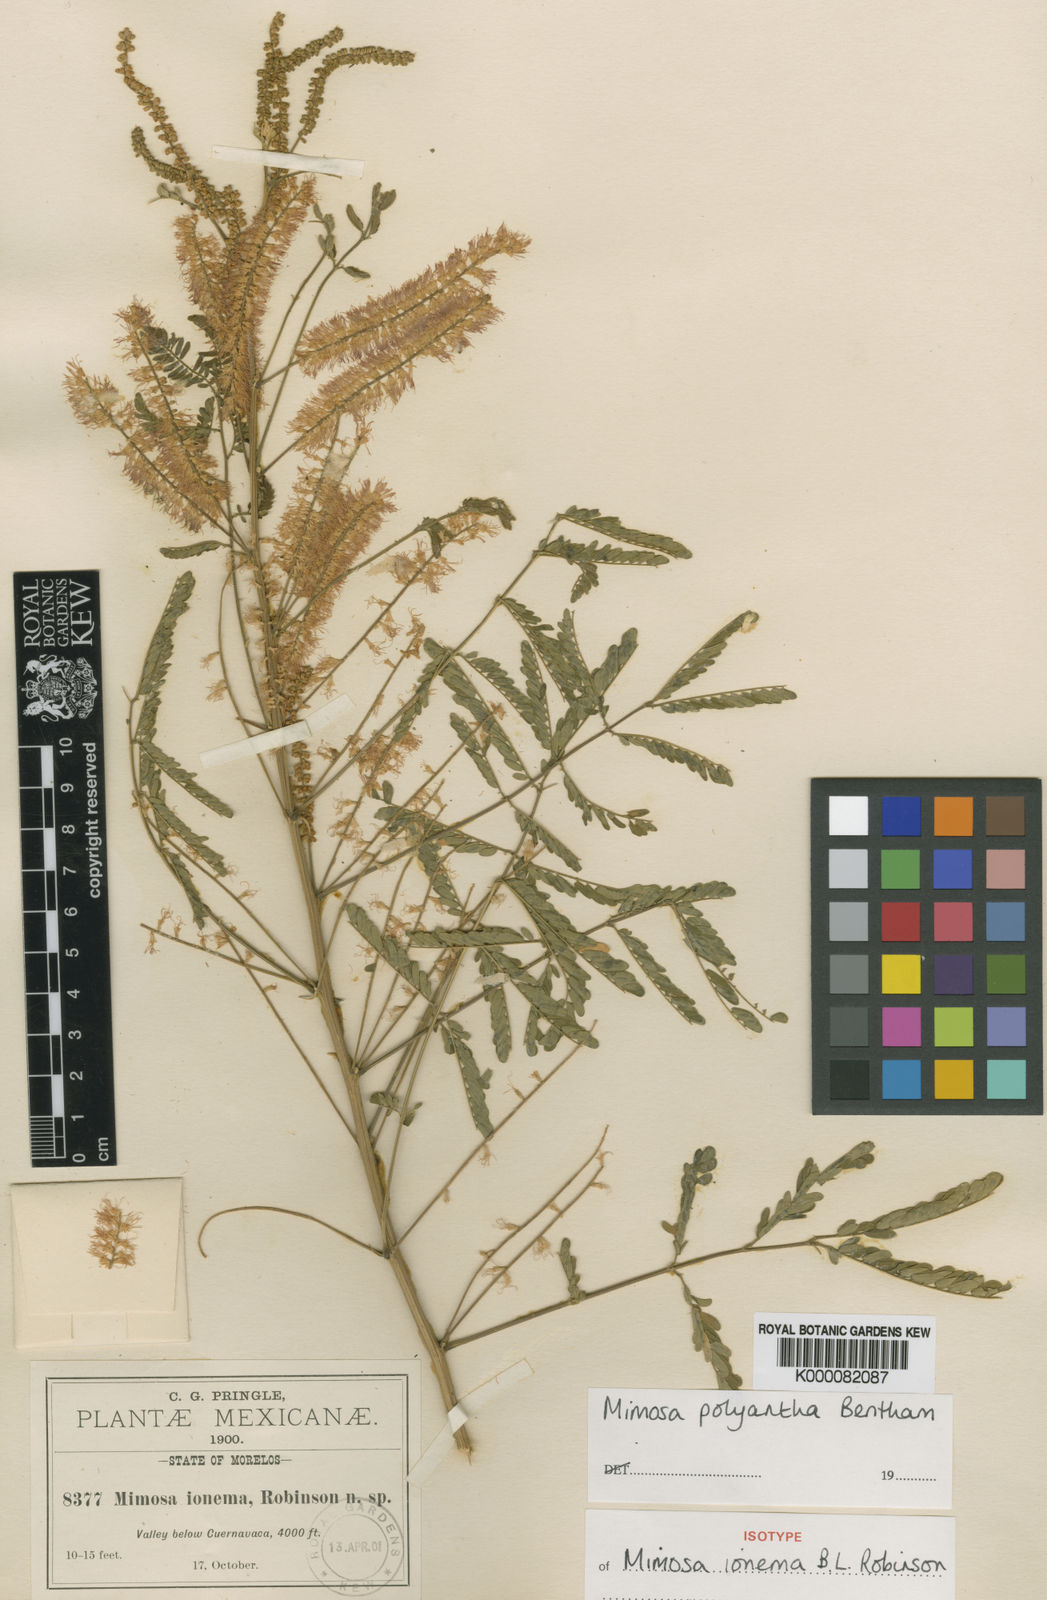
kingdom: Plantae
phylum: Tracheophyta
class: Magnoliopsida
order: Fabales
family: Fabaceae
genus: Mimosa
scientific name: Mimosa polyantha
